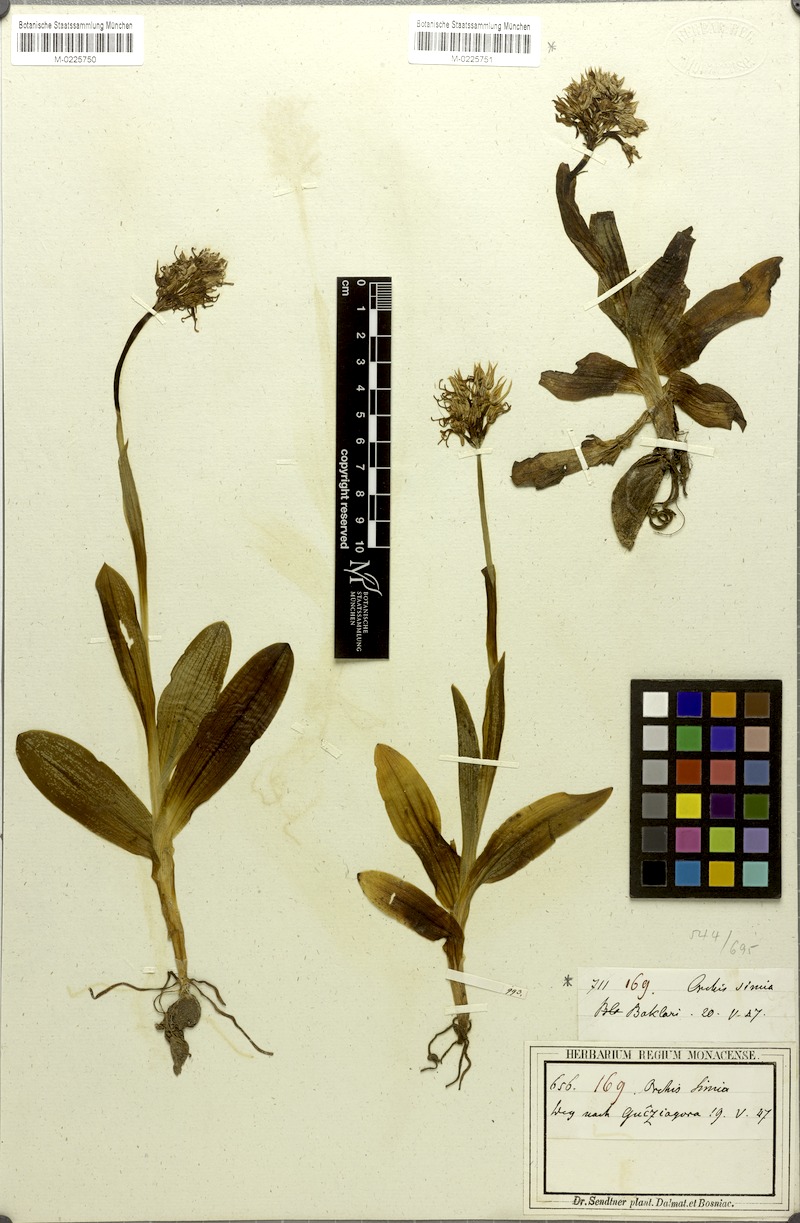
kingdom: Plantae
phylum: Tracheophyta
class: Liliopsida
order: Asparagales
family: Orchidaceae
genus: Orchis
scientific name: Orchis simia
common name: Monkey orchid
